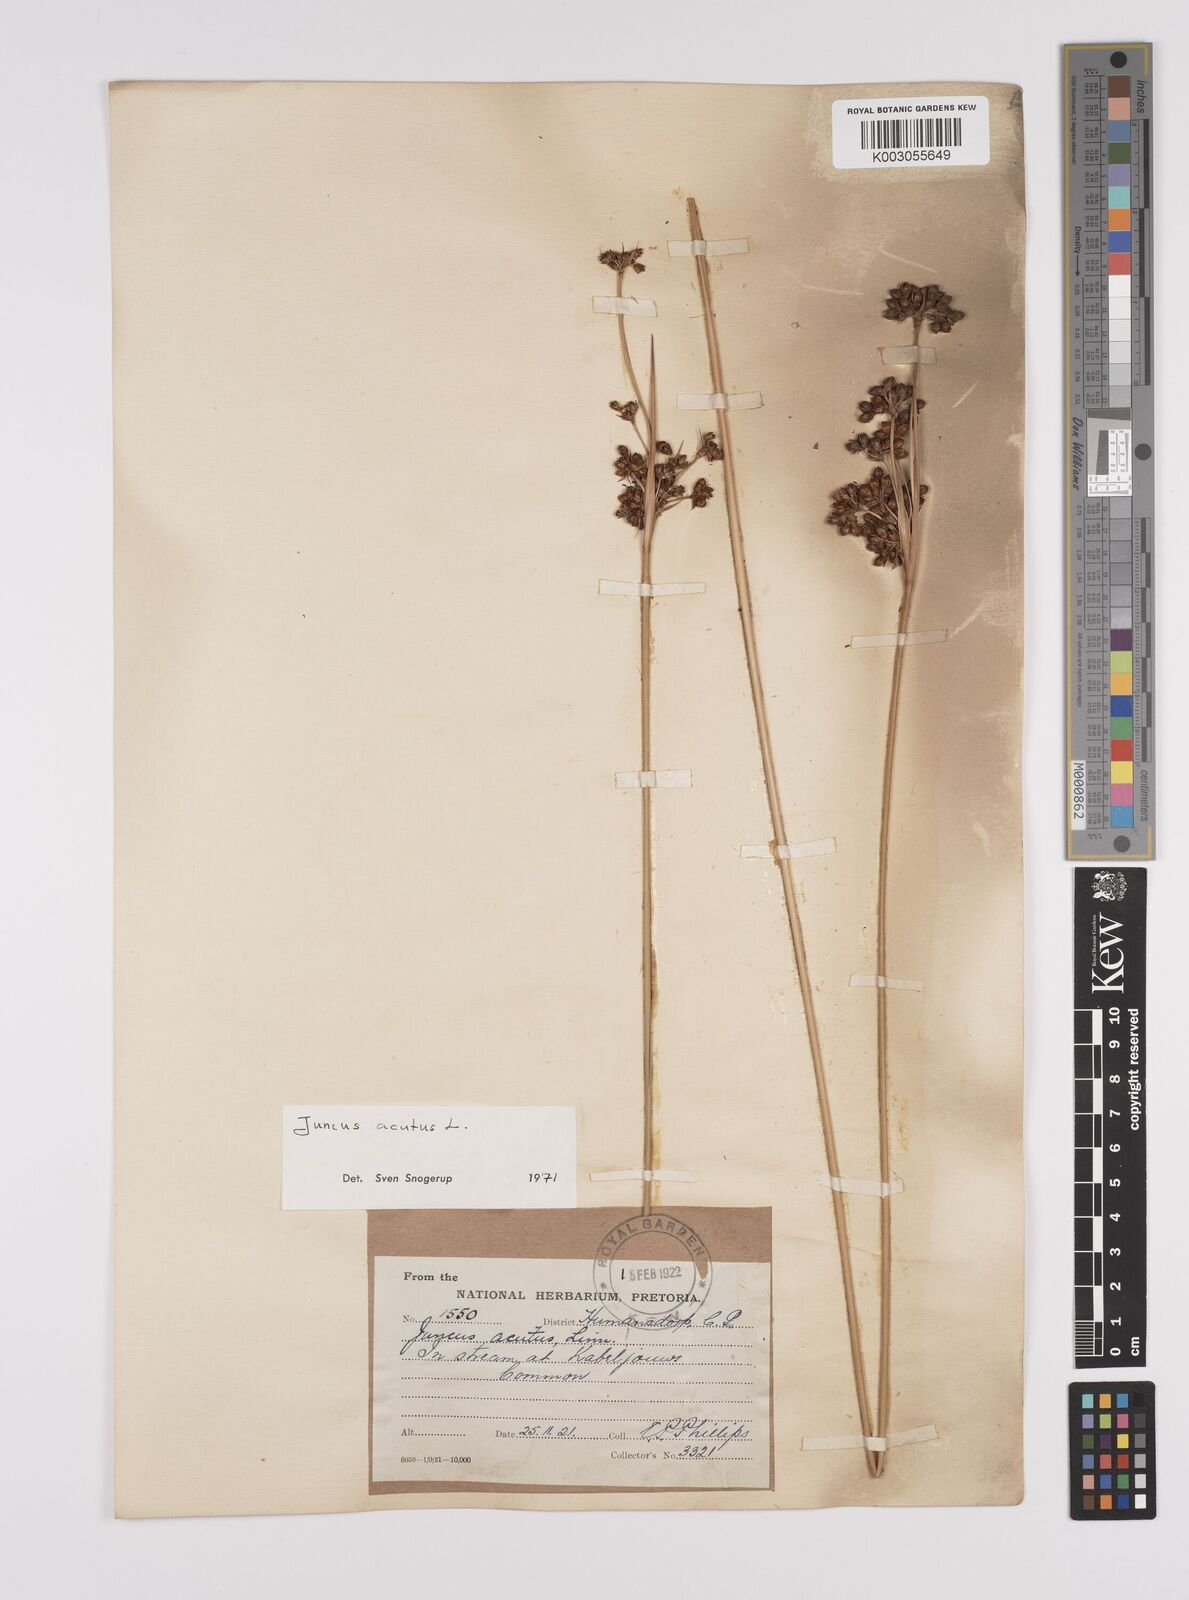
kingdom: Plantae
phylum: Tracheophyta
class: Liliopsida
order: Poales
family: Juncaceae
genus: Juncus
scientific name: Juncus acutus
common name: Sharp rush
